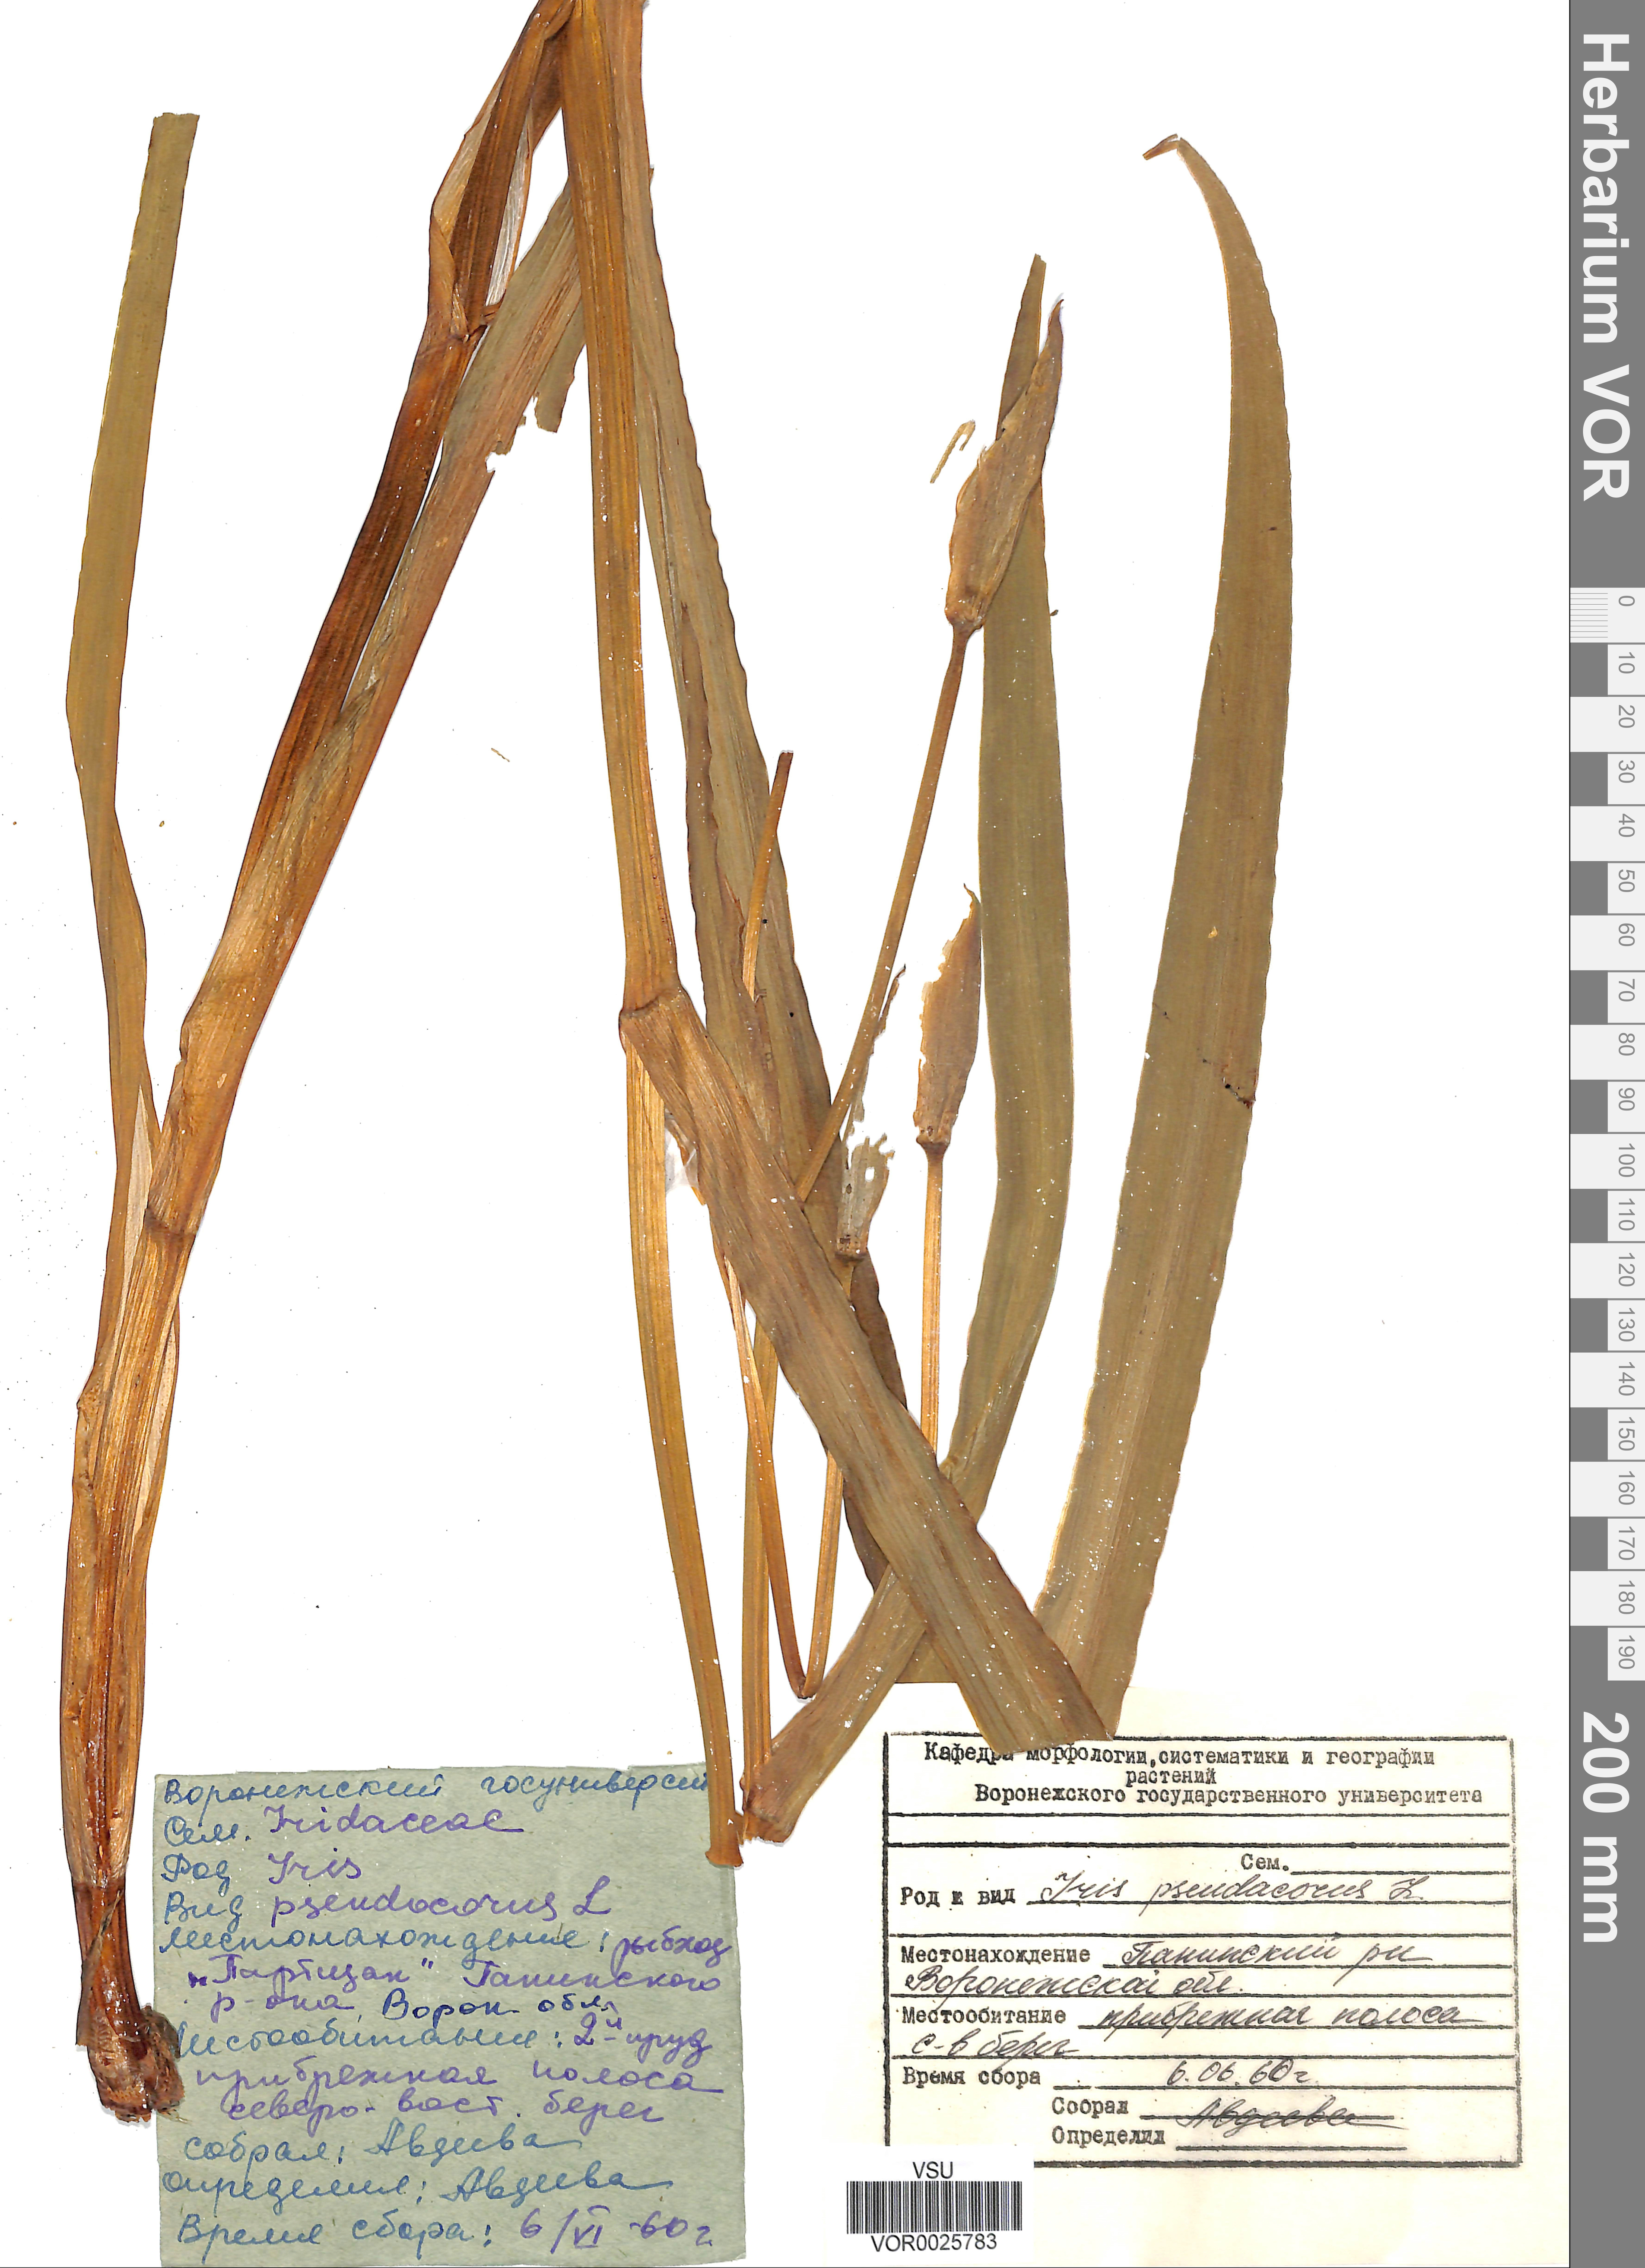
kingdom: Plantae
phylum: Tracheophyta
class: Liliopsida
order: Asparagales
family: Iridaceae
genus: Iris
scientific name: Iris pseudacorus
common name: Yellow flag
